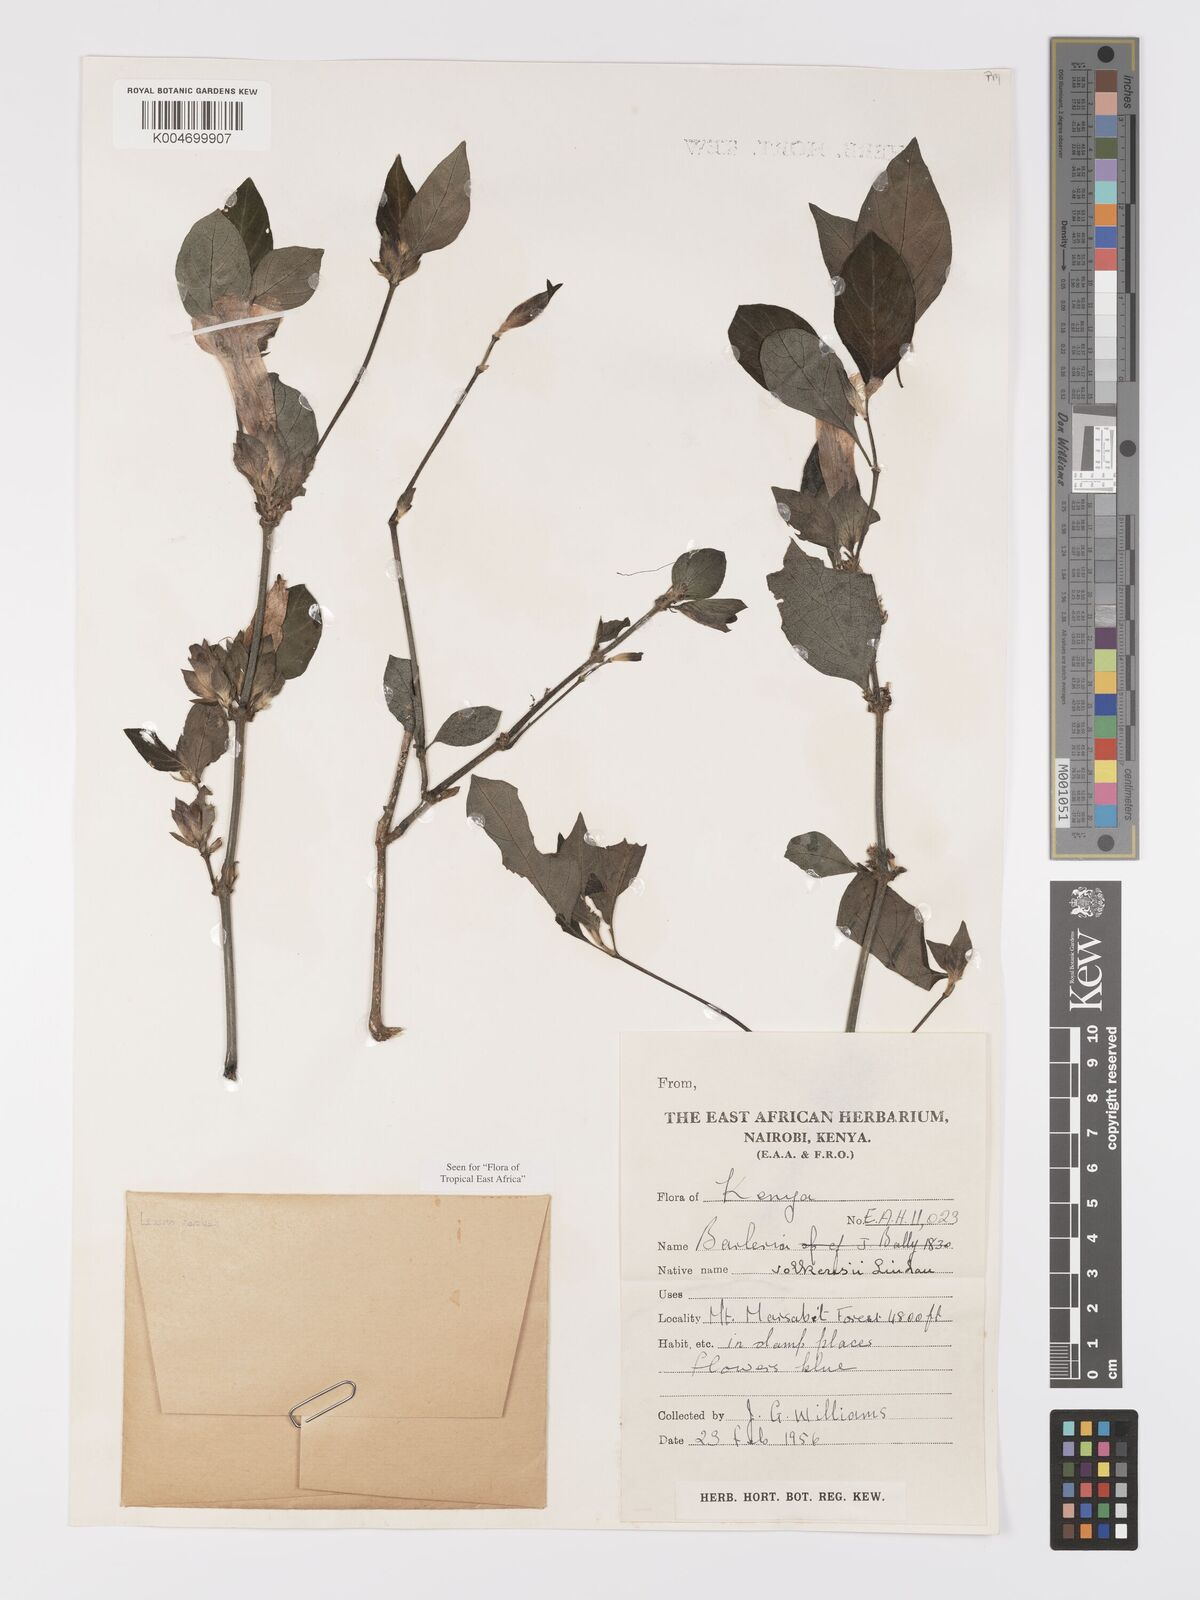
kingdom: Plantae
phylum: Tracheophyta
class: Magnoliopsida
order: Lamiales
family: Acanthaceae
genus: Barleria
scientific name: Barleria volkensii
